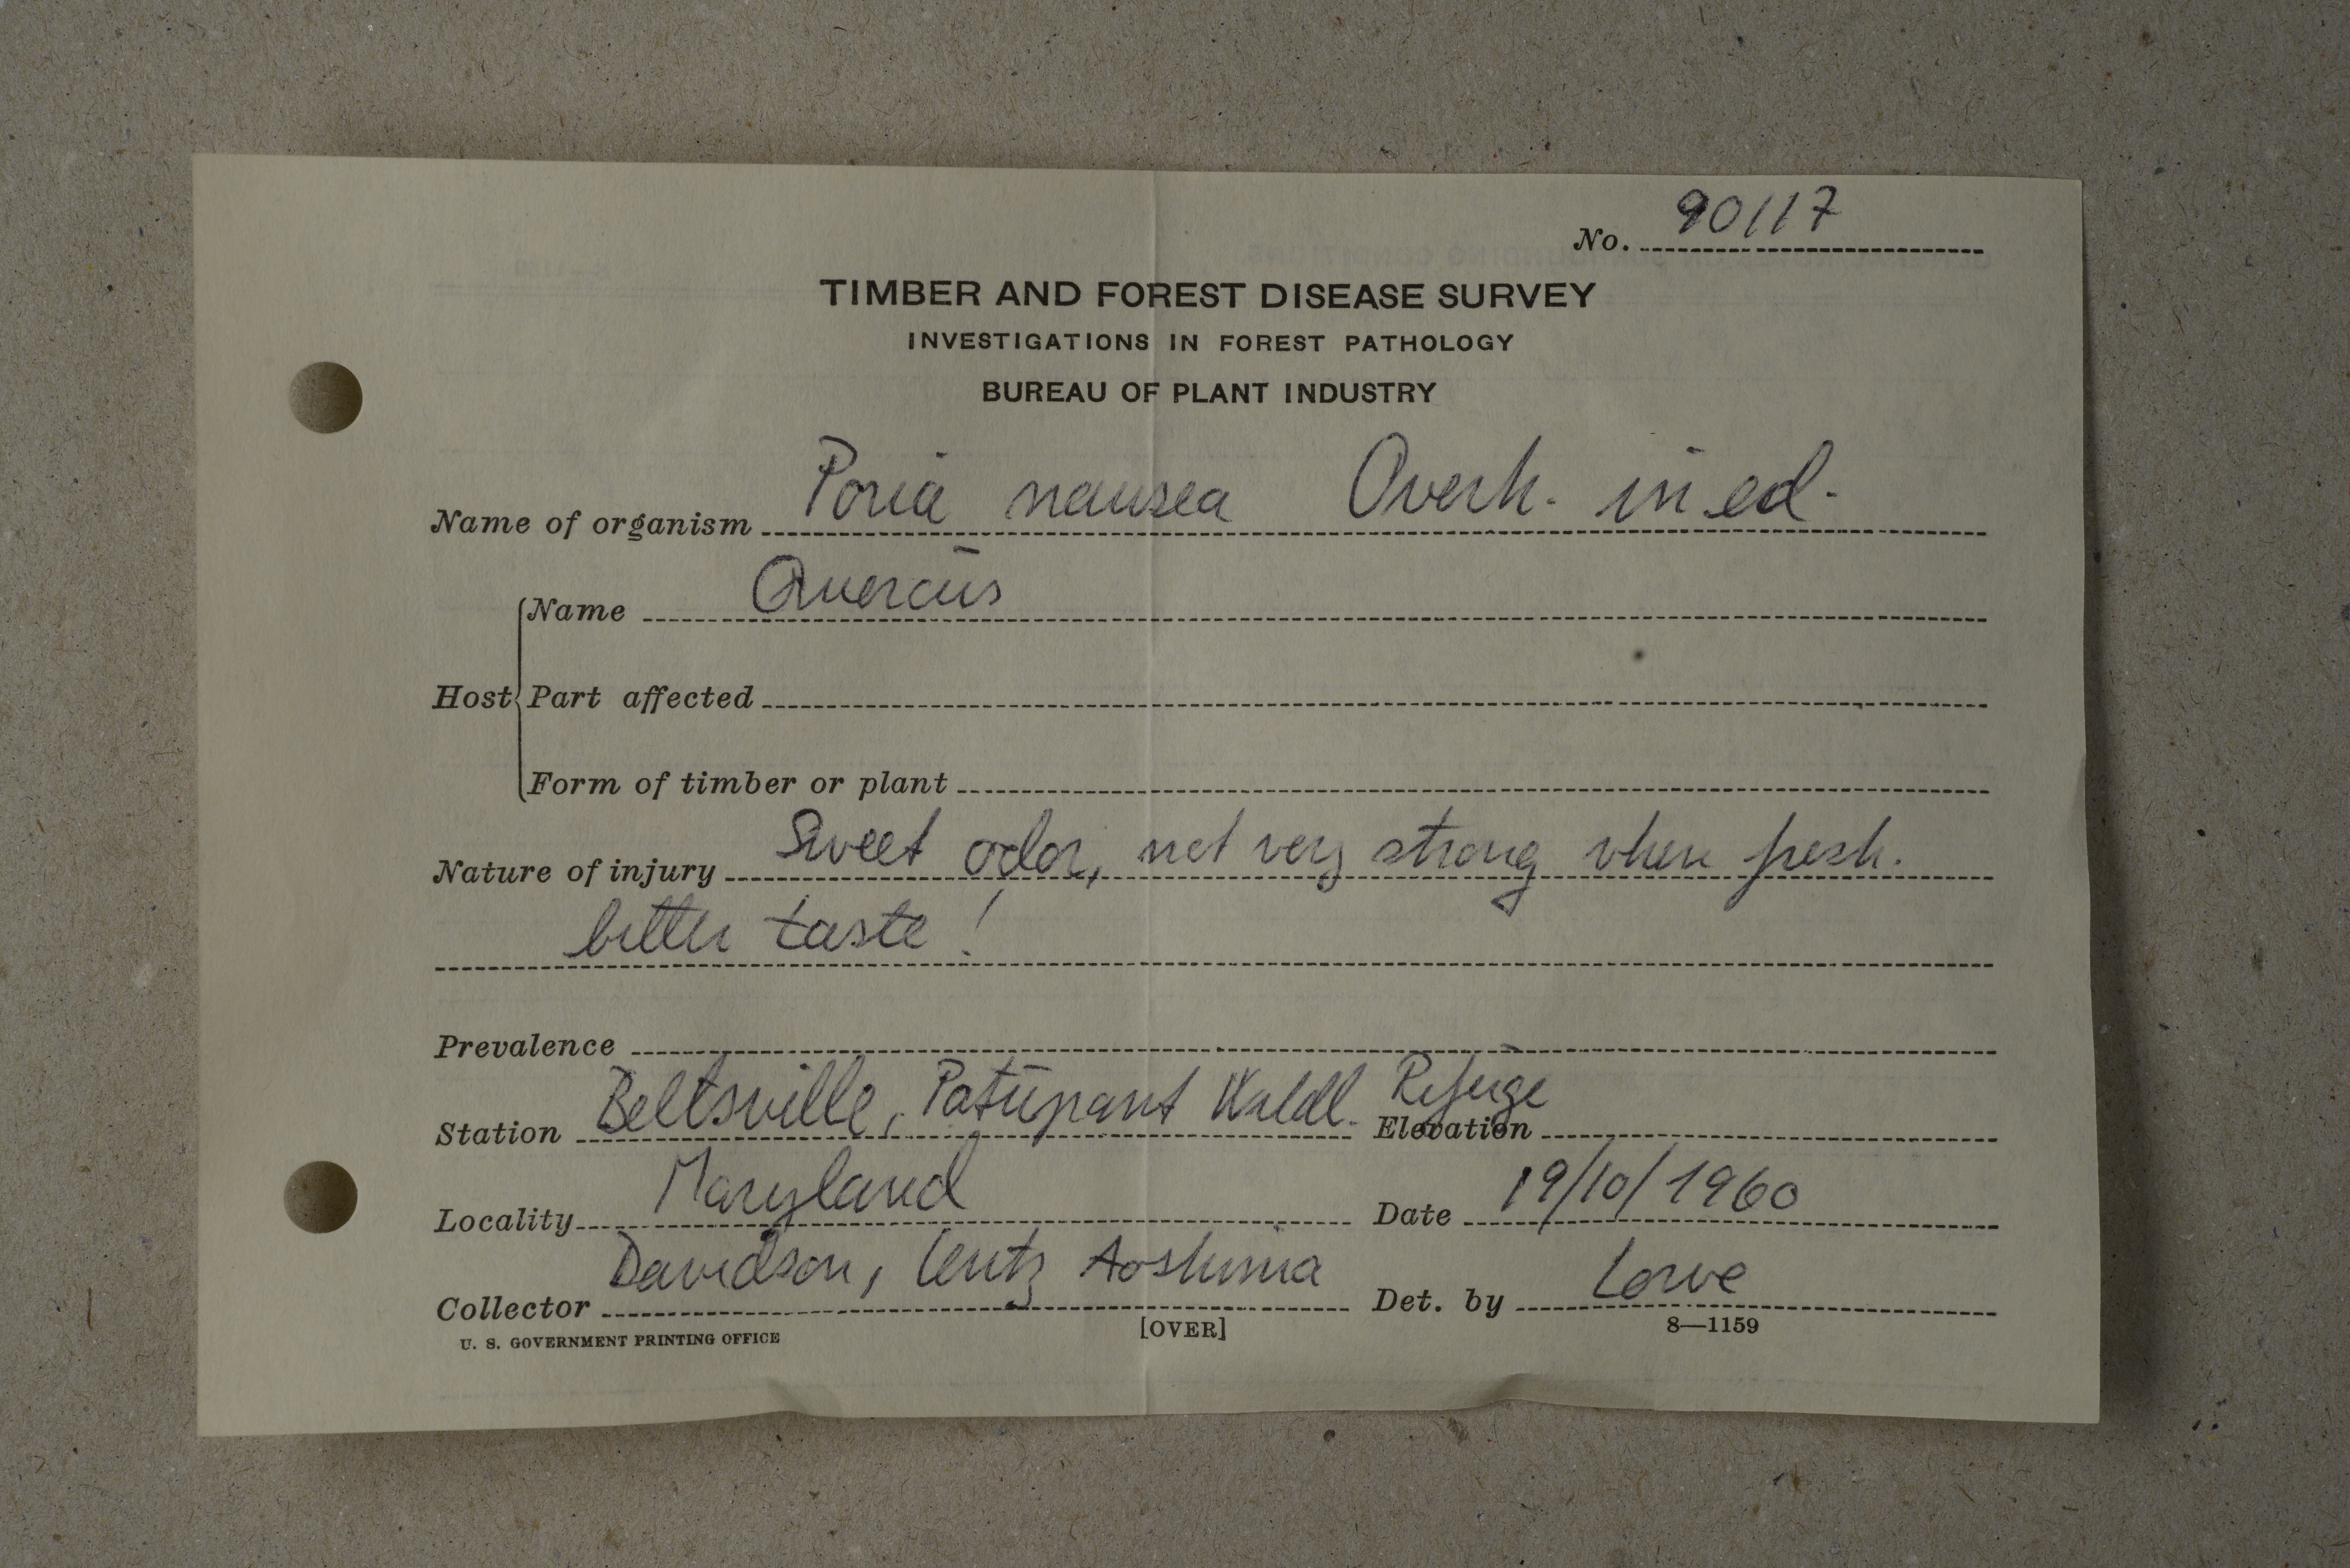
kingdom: Fungi
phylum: Basidiomycota
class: Agaricomycetes
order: Russulales
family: Hericiaceae
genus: Pseudowrightoporia
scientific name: Pseudowrightoporia cylindrospora
